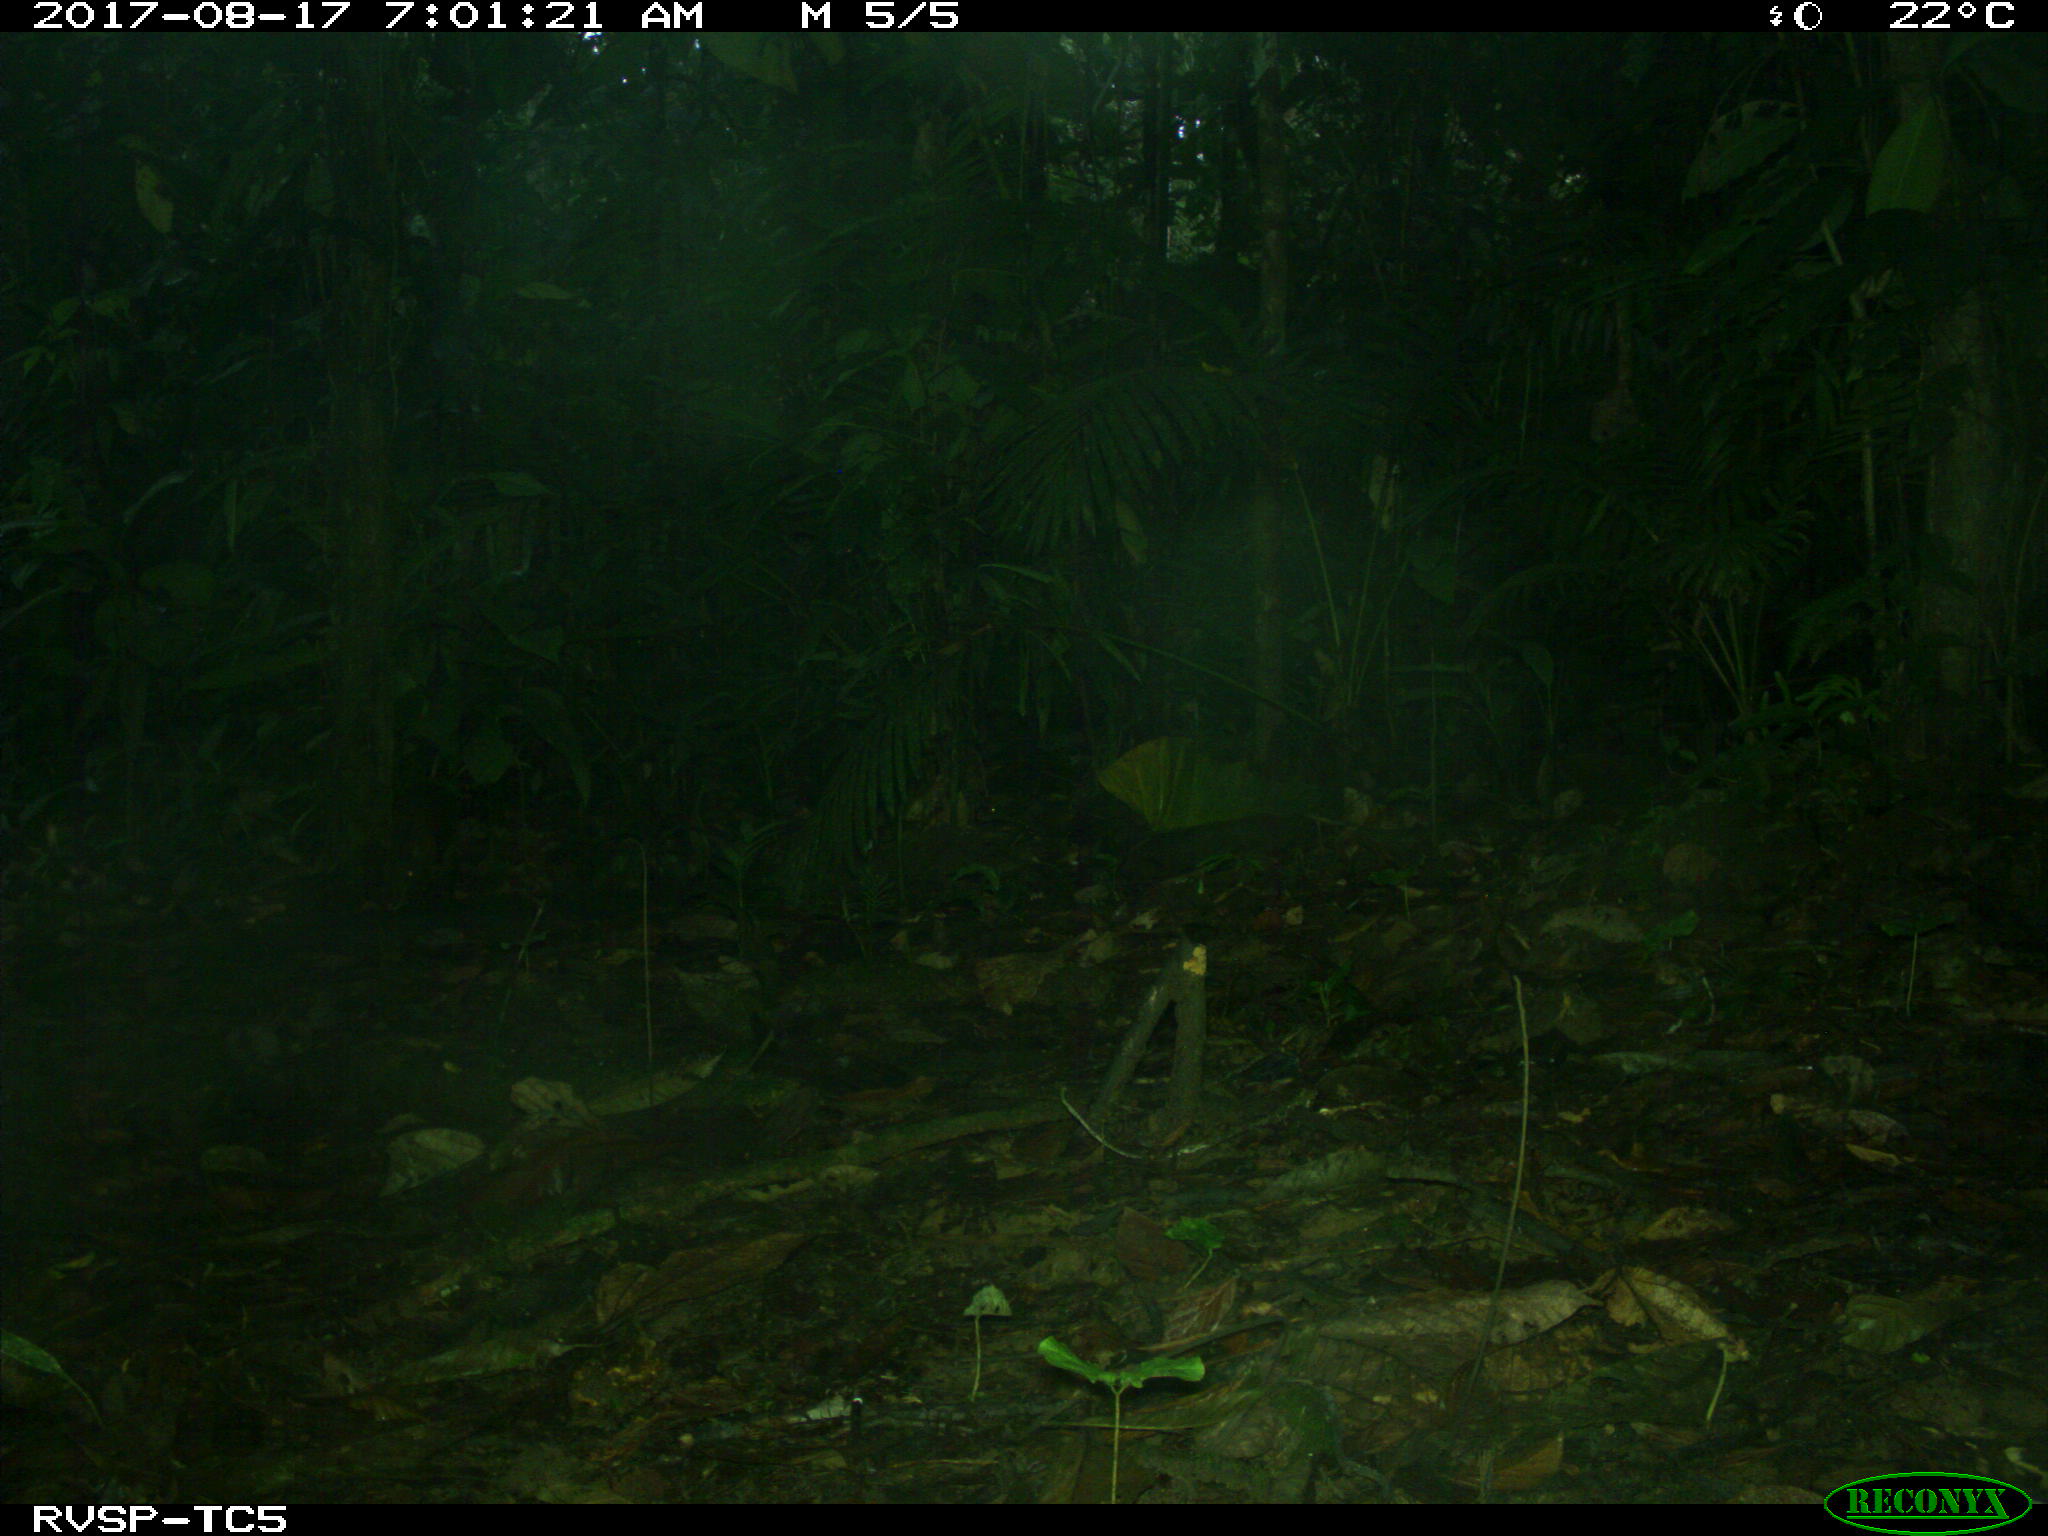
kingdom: Animalia
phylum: Chordata
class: Mammalia
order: Rodentia
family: Dasyproctidae
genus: Dasyprocta
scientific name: Dasyprocta punctata
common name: Central american agouti
